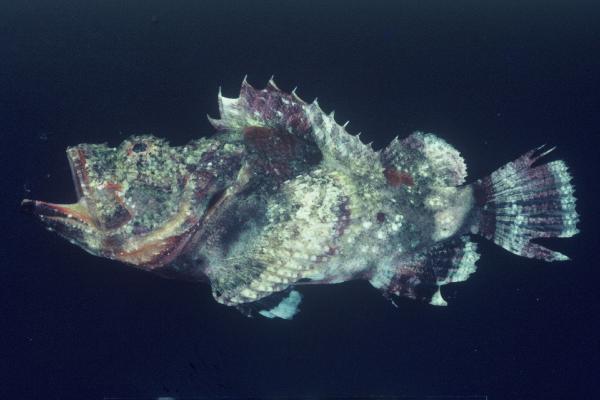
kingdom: Animalia
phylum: Chordata
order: Scorpaeniformes
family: Scorpaenidae
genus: Scorpaenopsis
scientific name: Scorpaenopsis diabolus
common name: False stonefish
